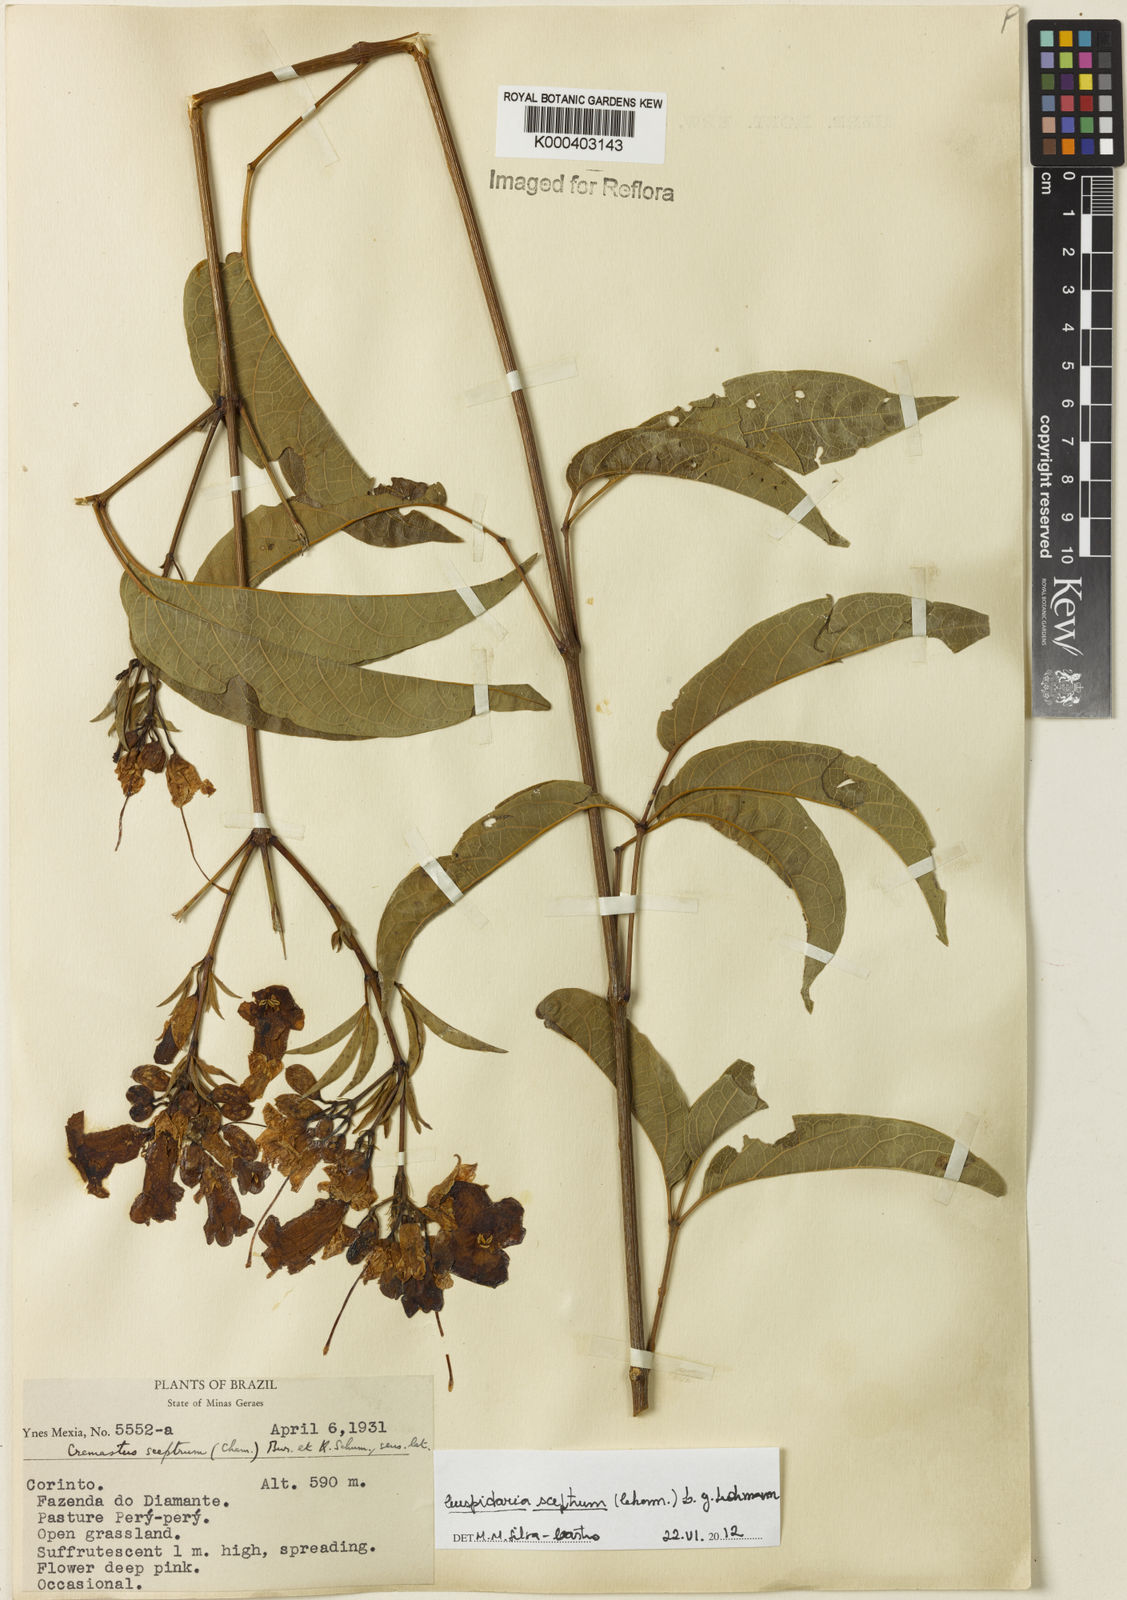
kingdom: Plantae
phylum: Tracheophyta
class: Magnoliopsida
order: Lamiales
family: Bignoniaceae
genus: Cuspidaria
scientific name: Cuspidaria sceptrum
